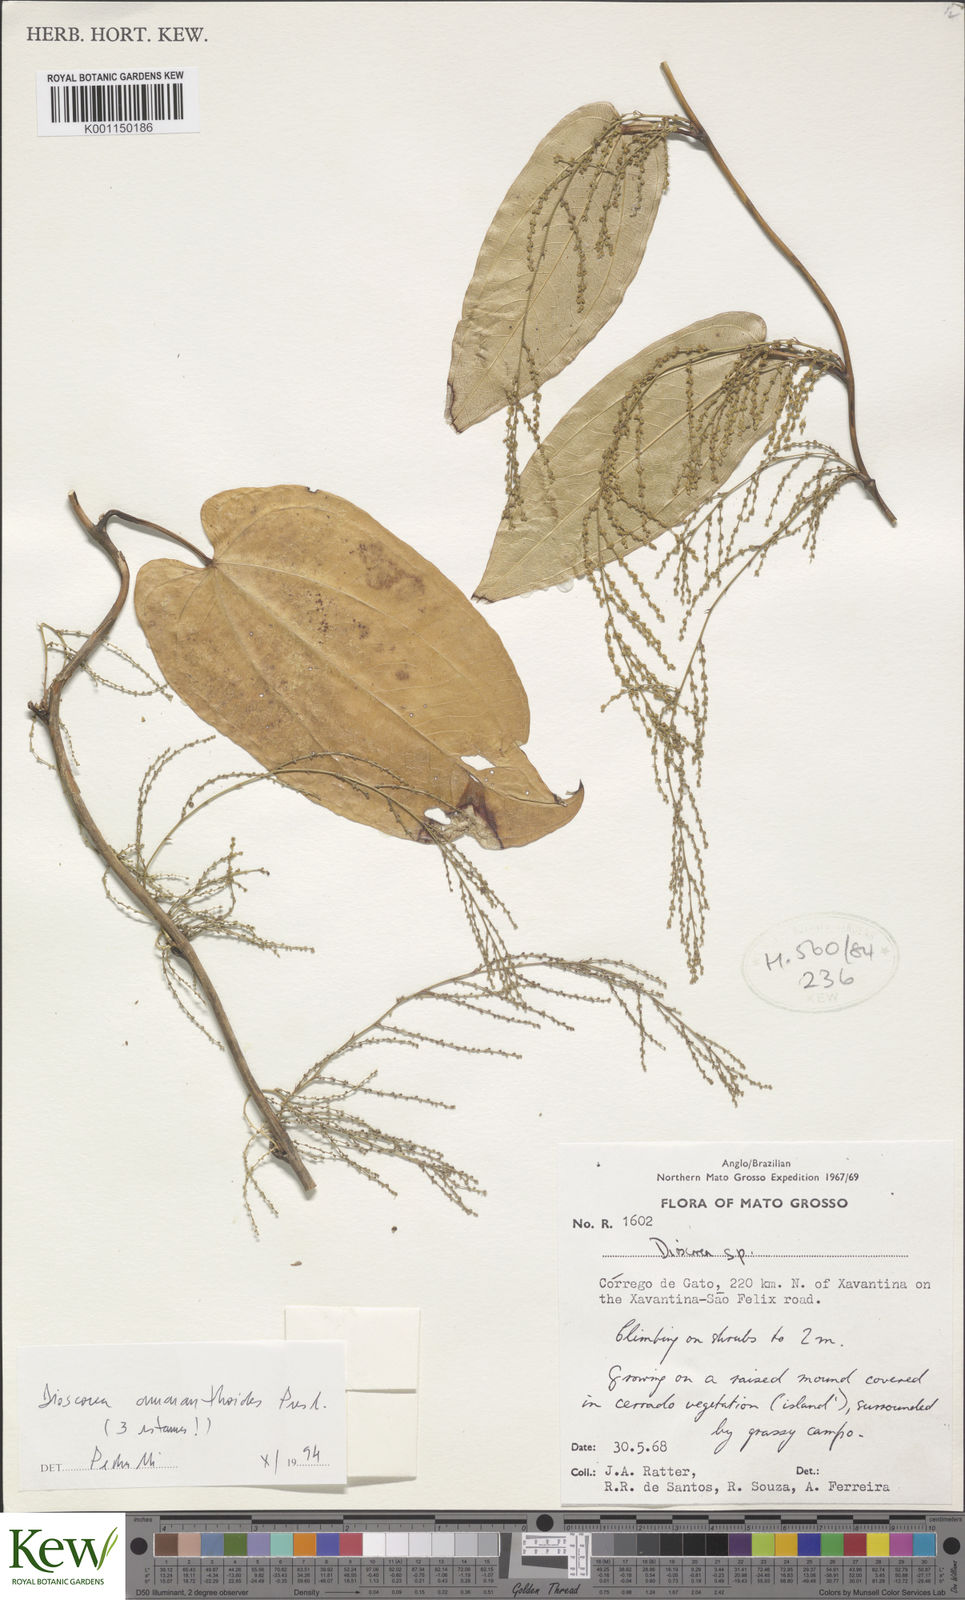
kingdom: Plantae
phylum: Tracheophyta
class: Liliopsida
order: Dioscoreales
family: Dioscoreaceae
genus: Dioscorea
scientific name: Dioscorea
